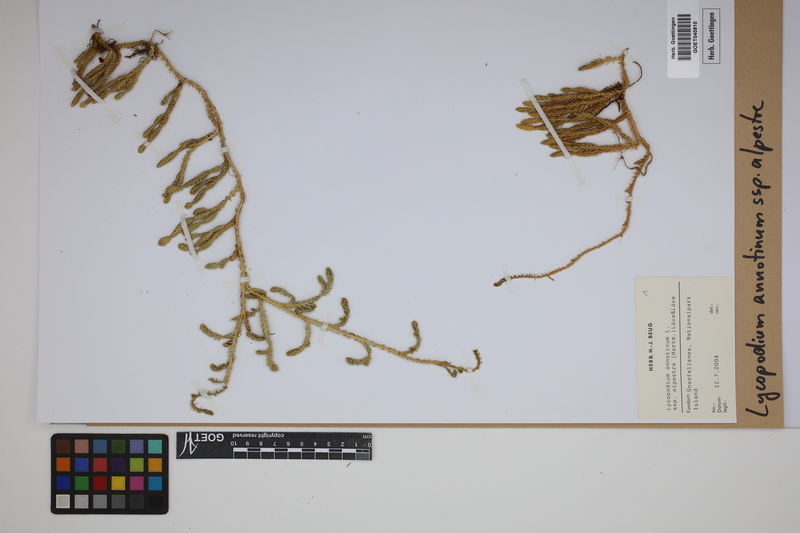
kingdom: Plantae
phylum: Tracheophyta
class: Lycopodiopsida
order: Lycopodiales
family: Lycopodiaceae
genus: Spinulum
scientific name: Spinulum annotinum
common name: Interrupted club-moss
